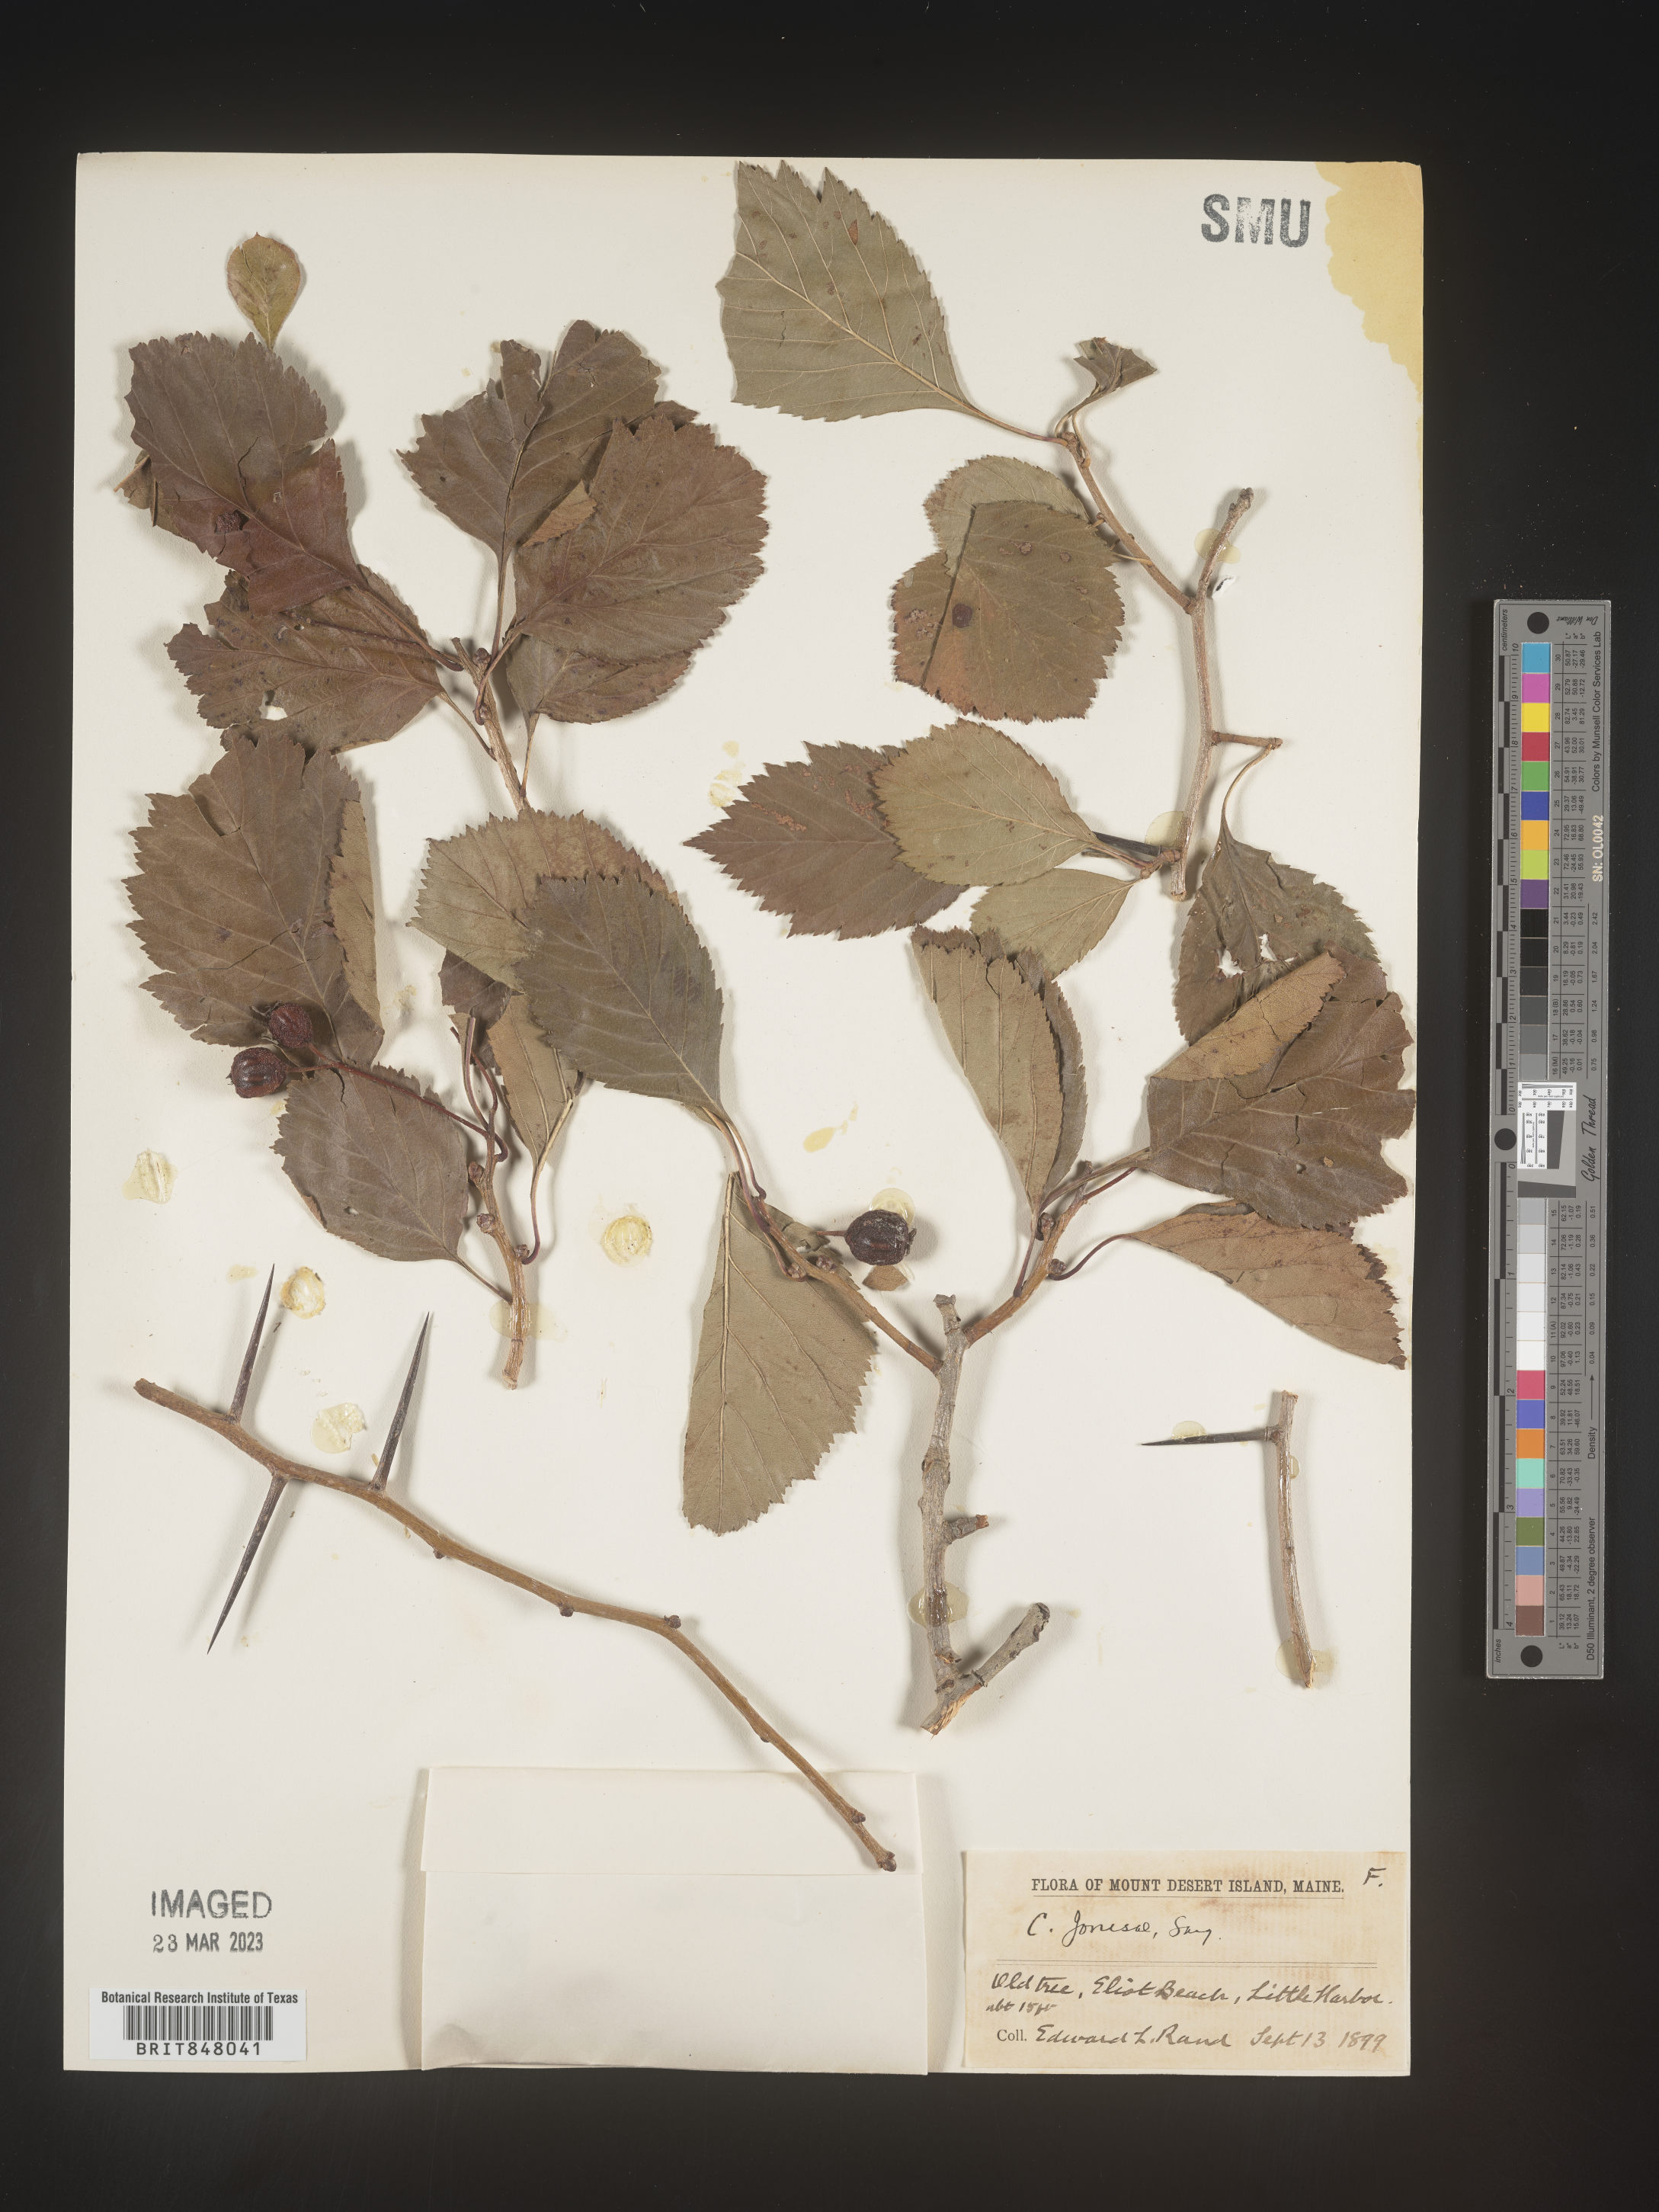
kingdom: Plantae
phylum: Tracheophyta
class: Magnoliopsida
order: Rosales
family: Rosaceae
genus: Crataegus
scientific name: Crataegus
